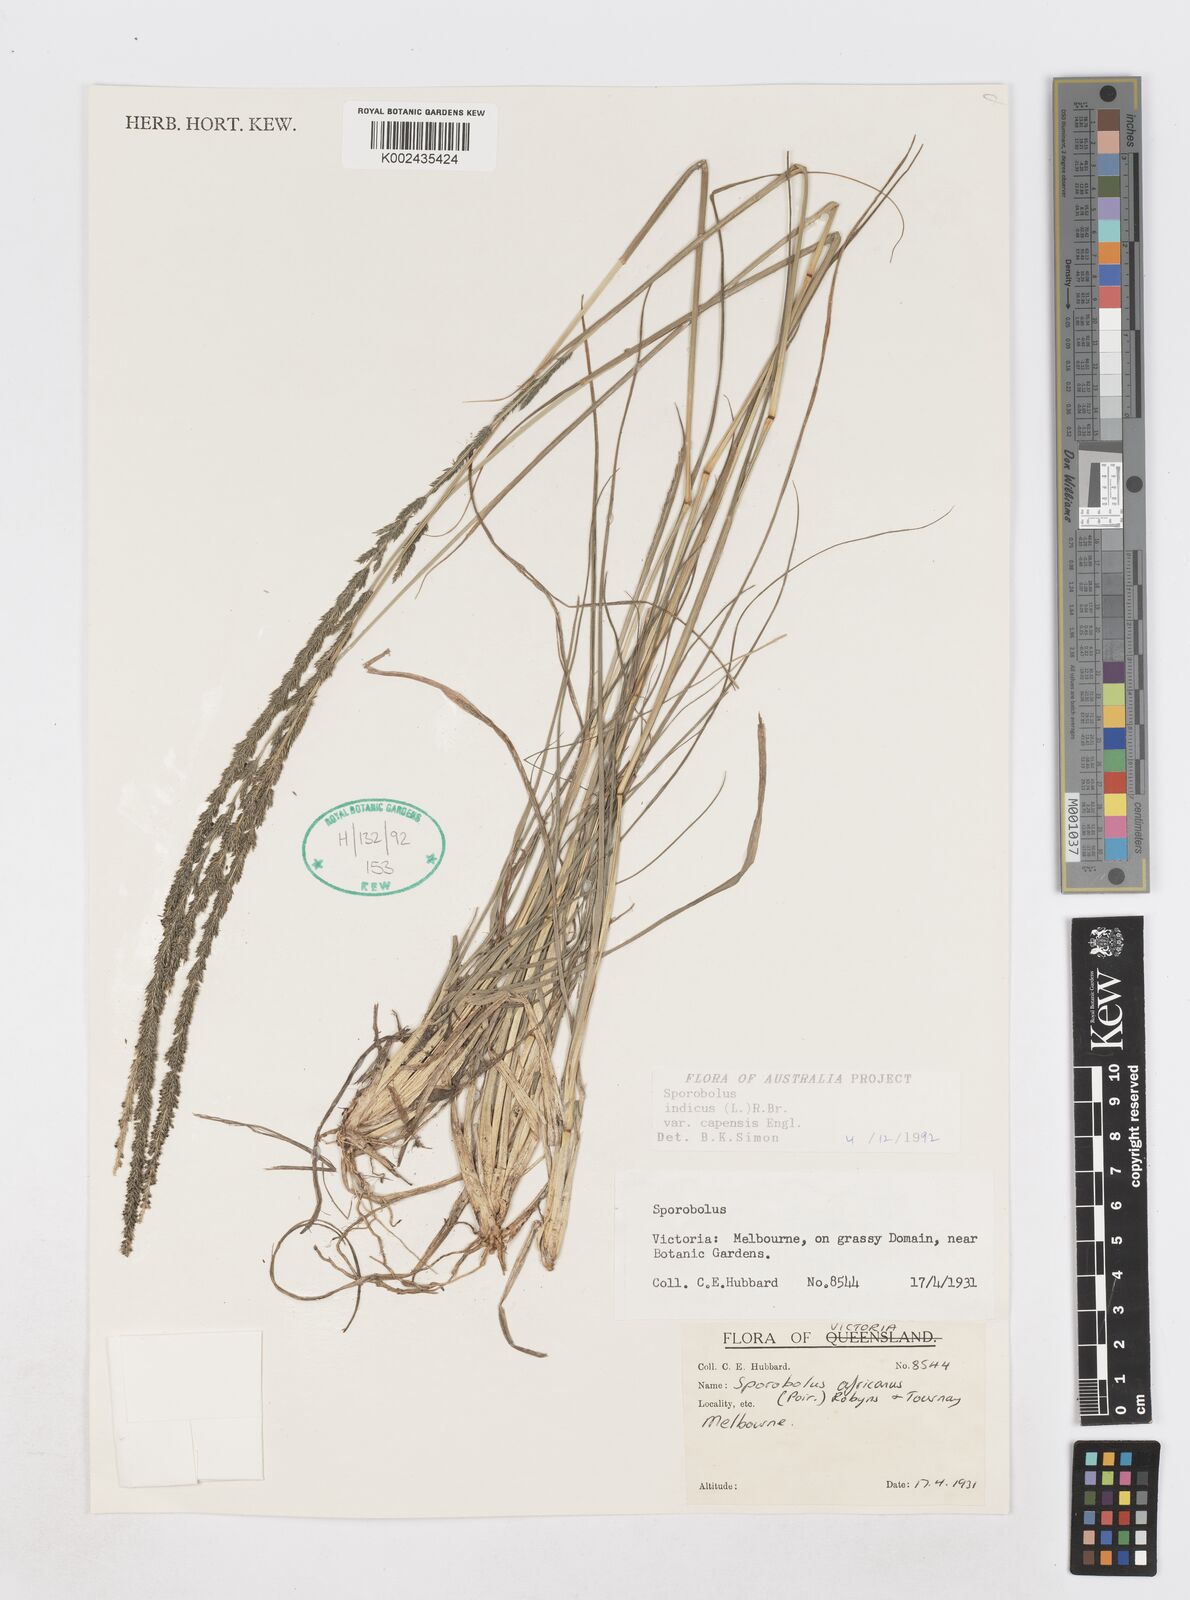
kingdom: Plantae
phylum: Tracheophyta
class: Liliopsida
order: Poales
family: Poaceae
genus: Sporobolus
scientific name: Sporobolus africanus
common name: African dropseed
